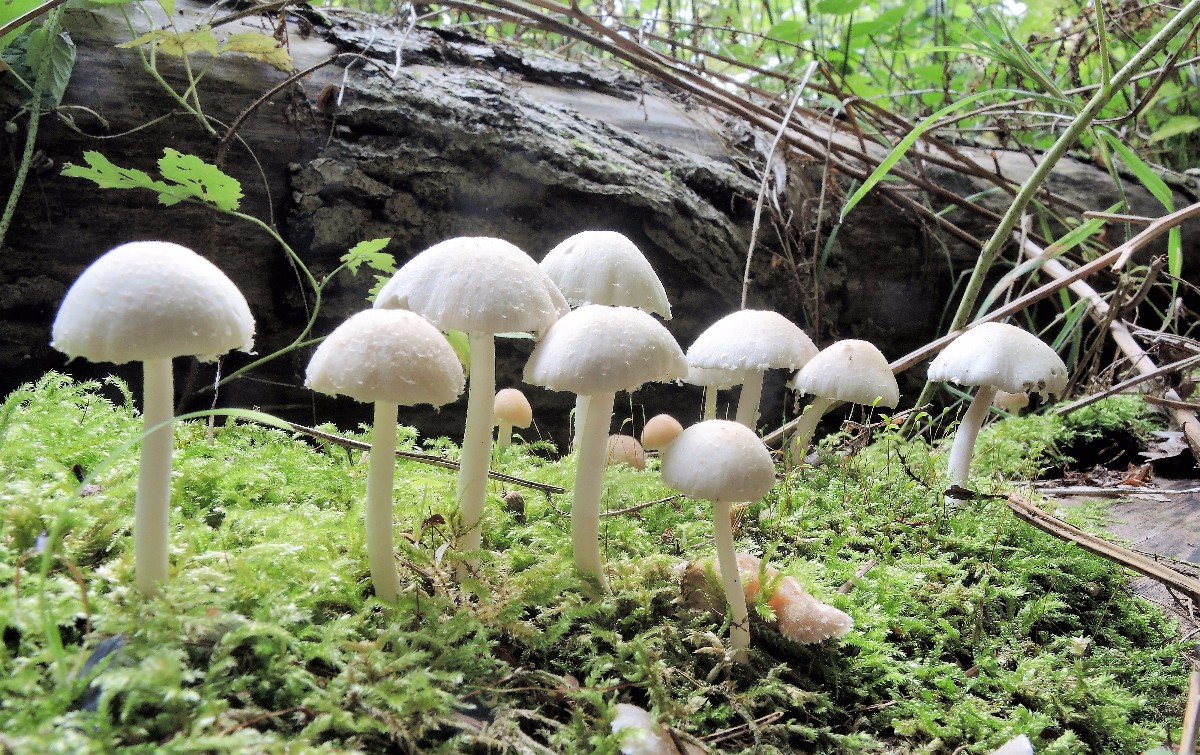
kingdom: Fungi
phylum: Basidiomycota
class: Agaricomycetes
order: Agaricales
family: Psathyrellaceae
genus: Candolleomyces
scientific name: Candolleomyces candolleanus
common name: Candolles mørkhat
